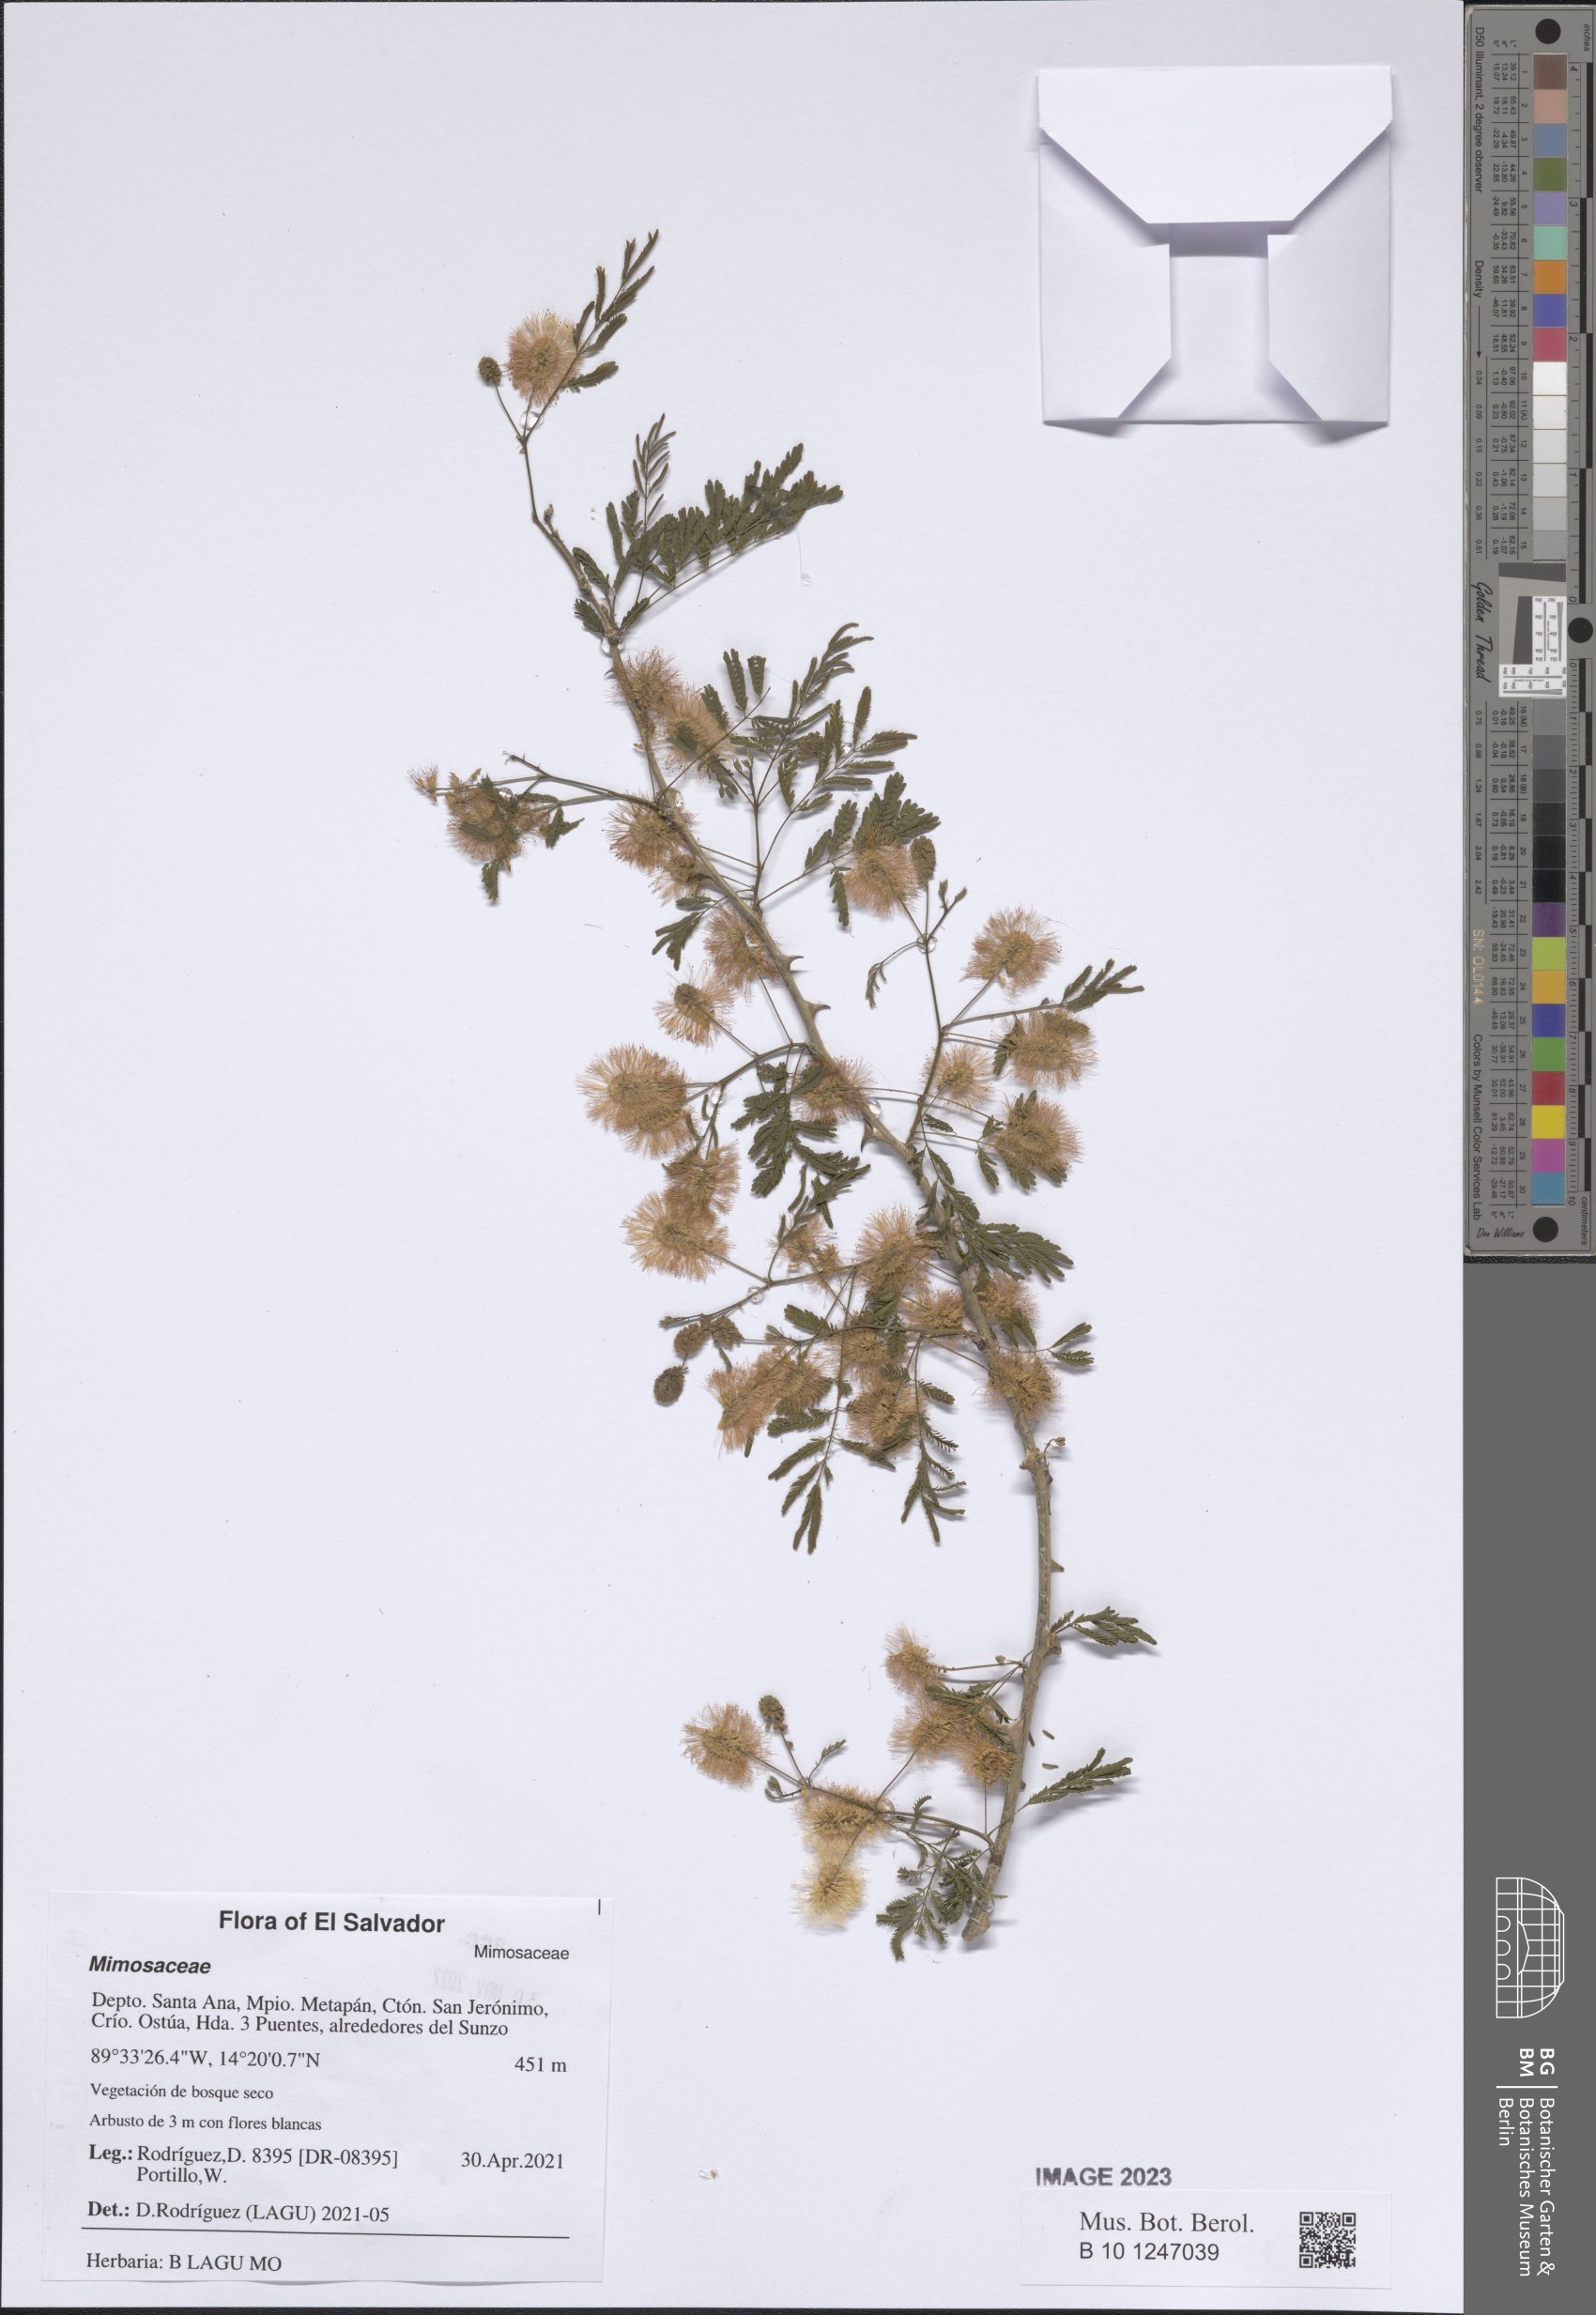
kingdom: Plantae
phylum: Tracheophyta
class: Magnoliopsida
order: Fabales
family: Fabaceae
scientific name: Fabaceae
